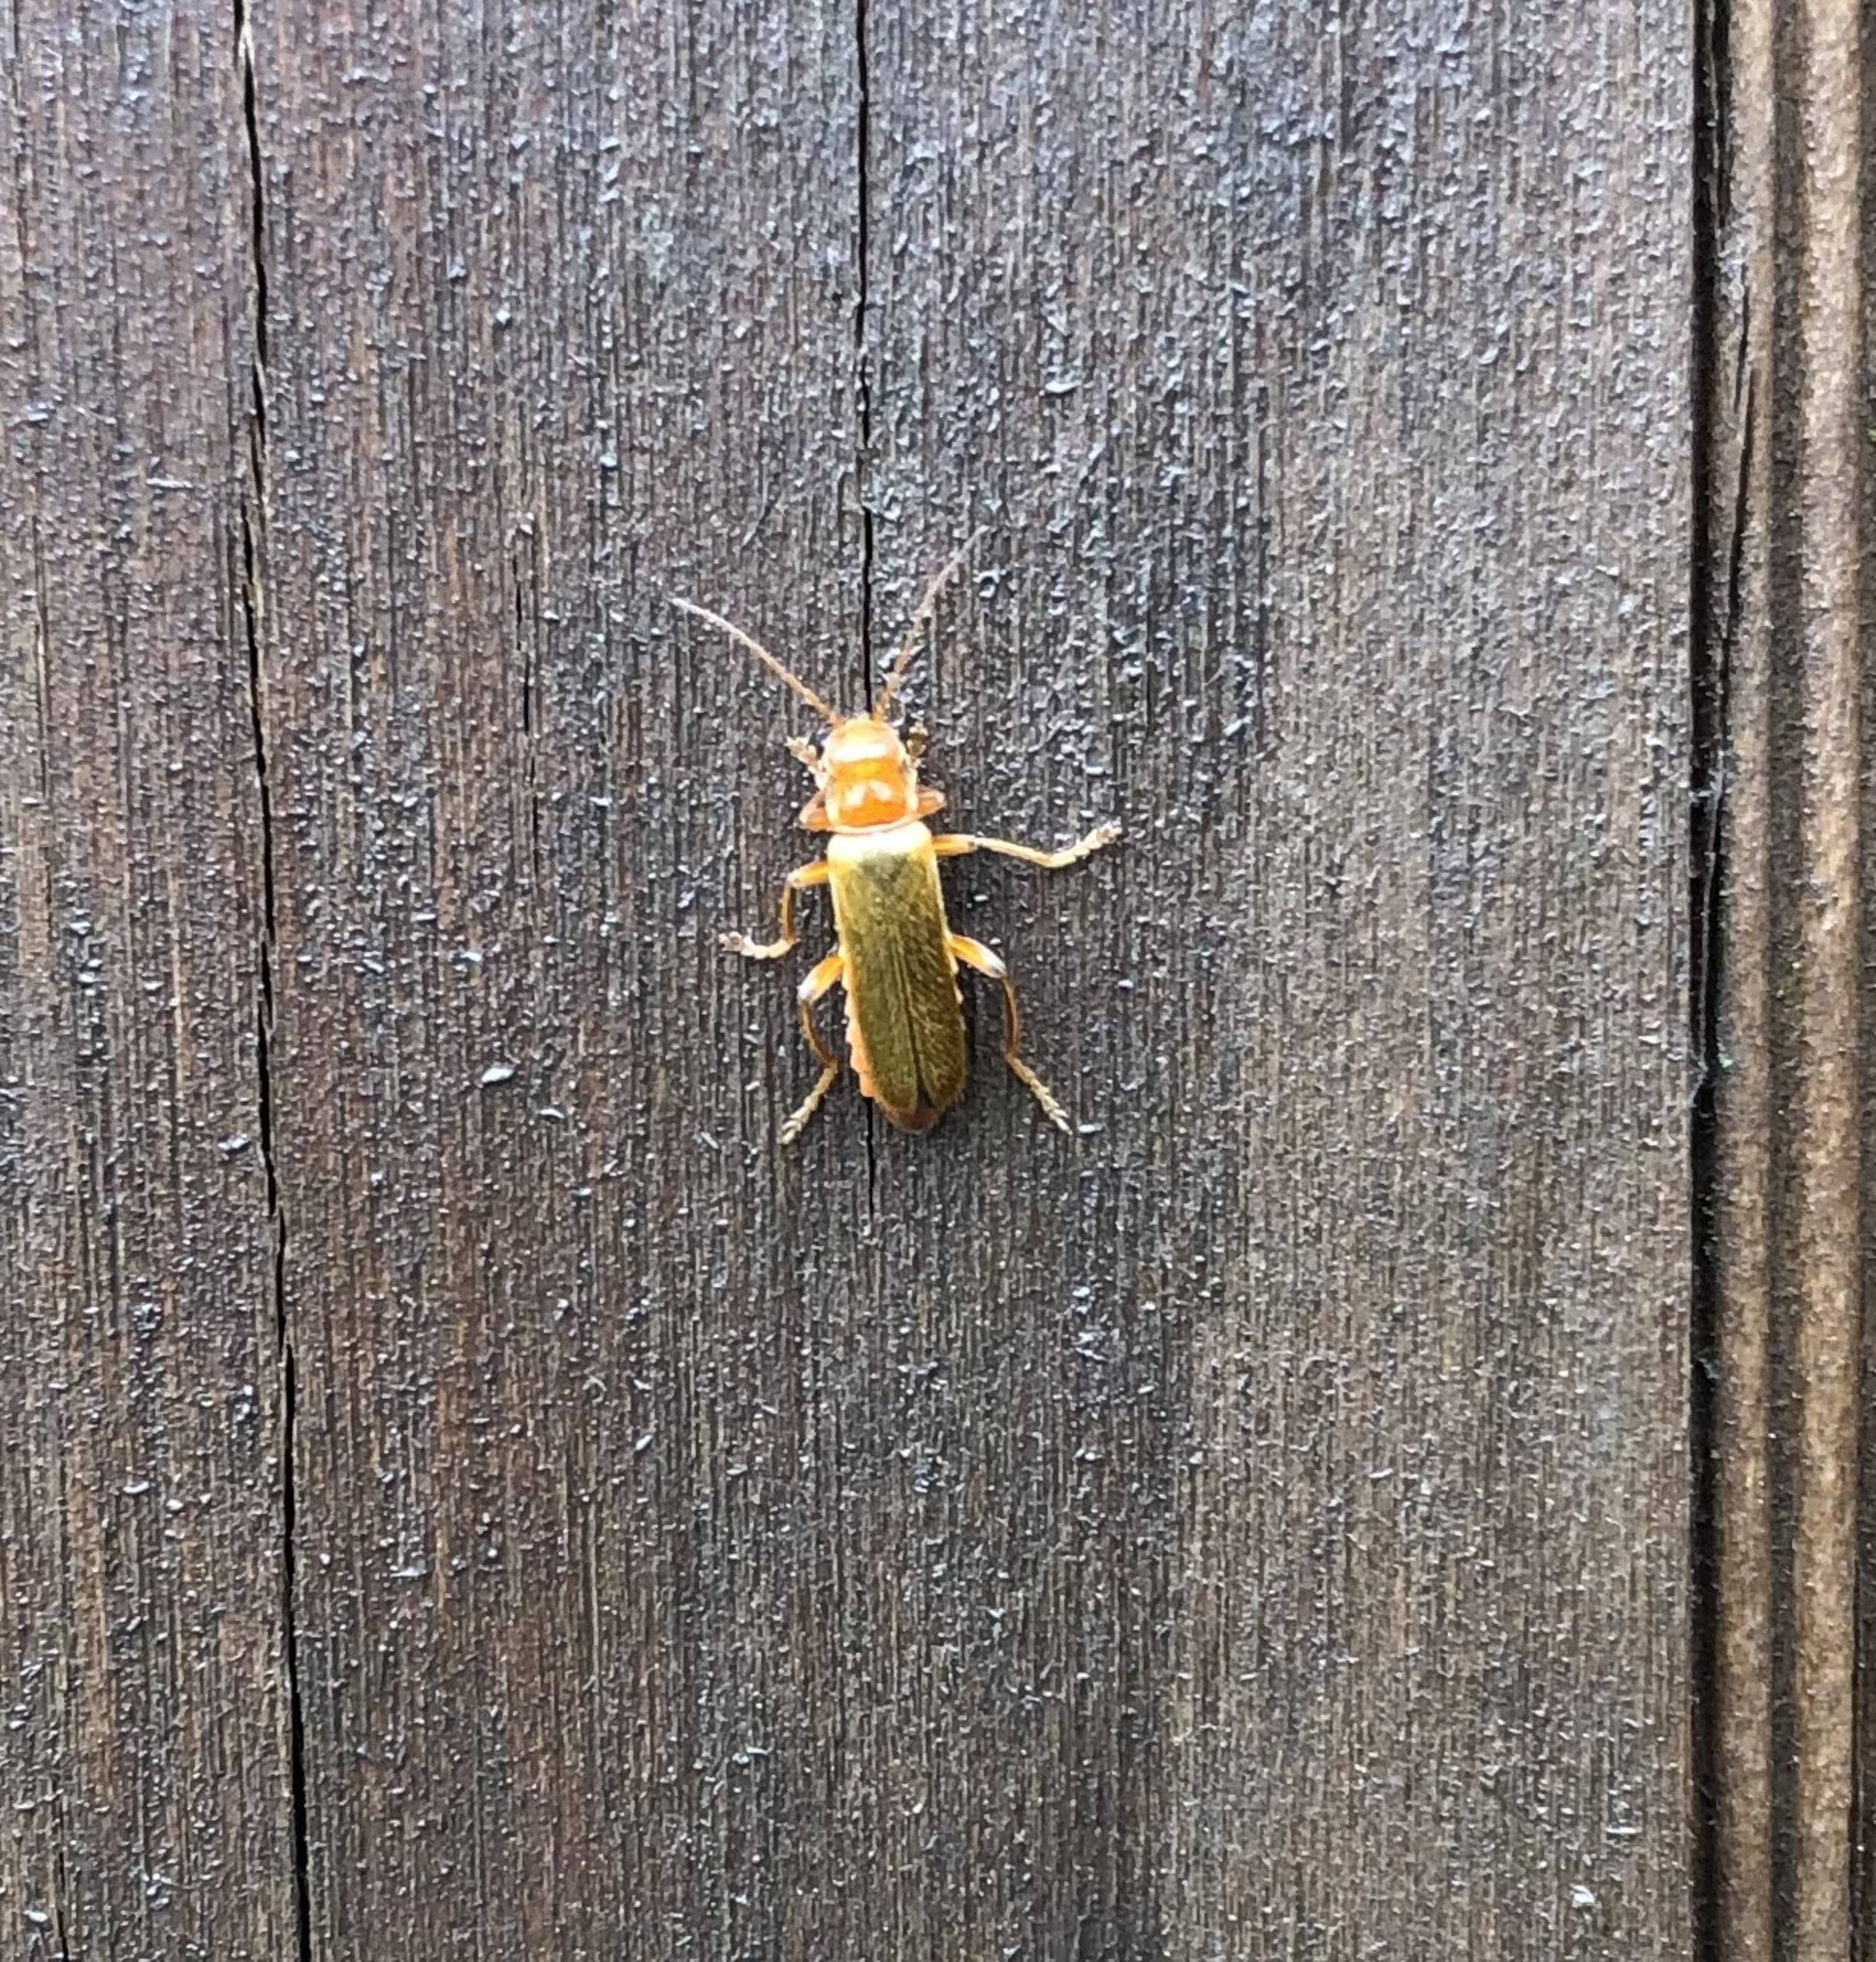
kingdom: Animalia
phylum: Arthropoda
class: Insecta
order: Coleoptera
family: Cantharidae
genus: Cantharis
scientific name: Cantharis
